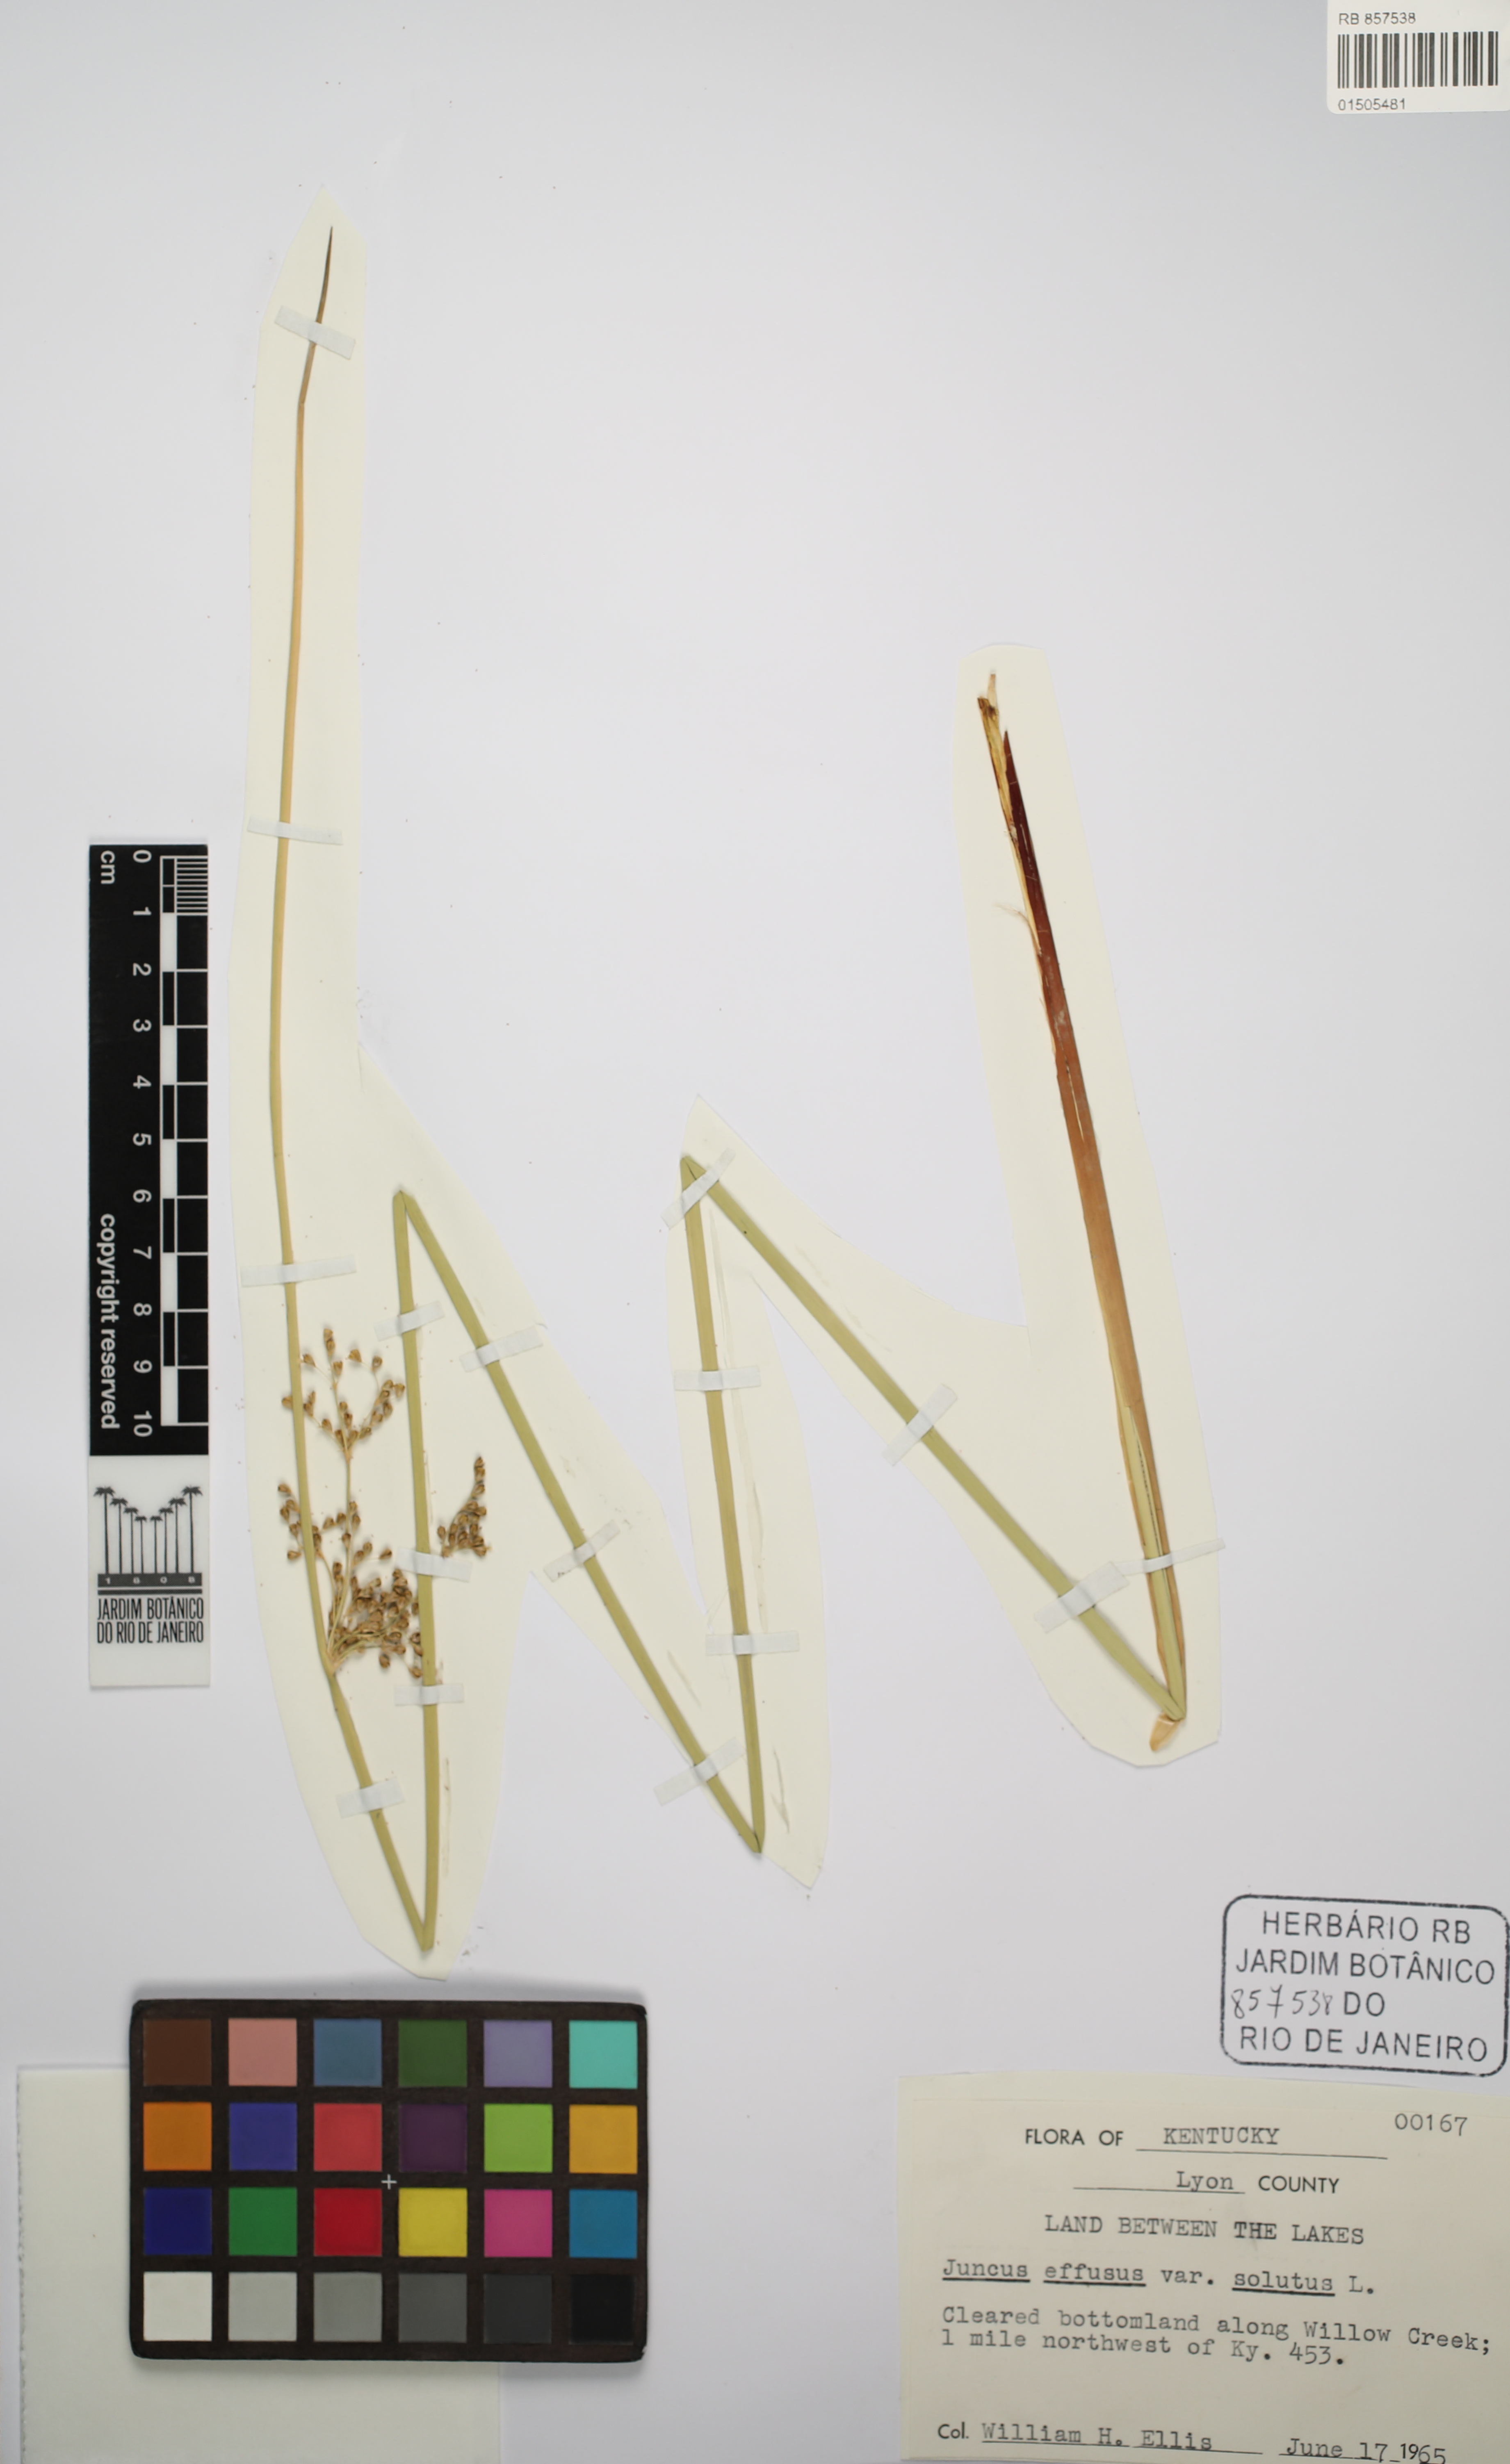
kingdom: Plantae
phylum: Tracheophyta
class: Liliopsida
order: Poales
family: Juncaceae
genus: Juncus
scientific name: Juncus effusus
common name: Soft rush
